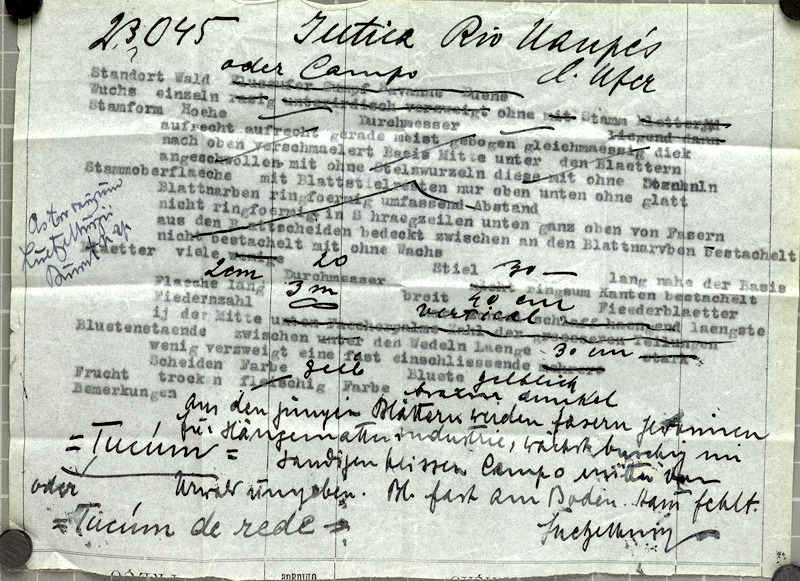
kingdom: Plantae
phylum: Tracheophyta
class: Liliopsida
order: Arecales
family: Arecaceae
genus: Astrocaryum
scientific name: Astrocaryum acaule
